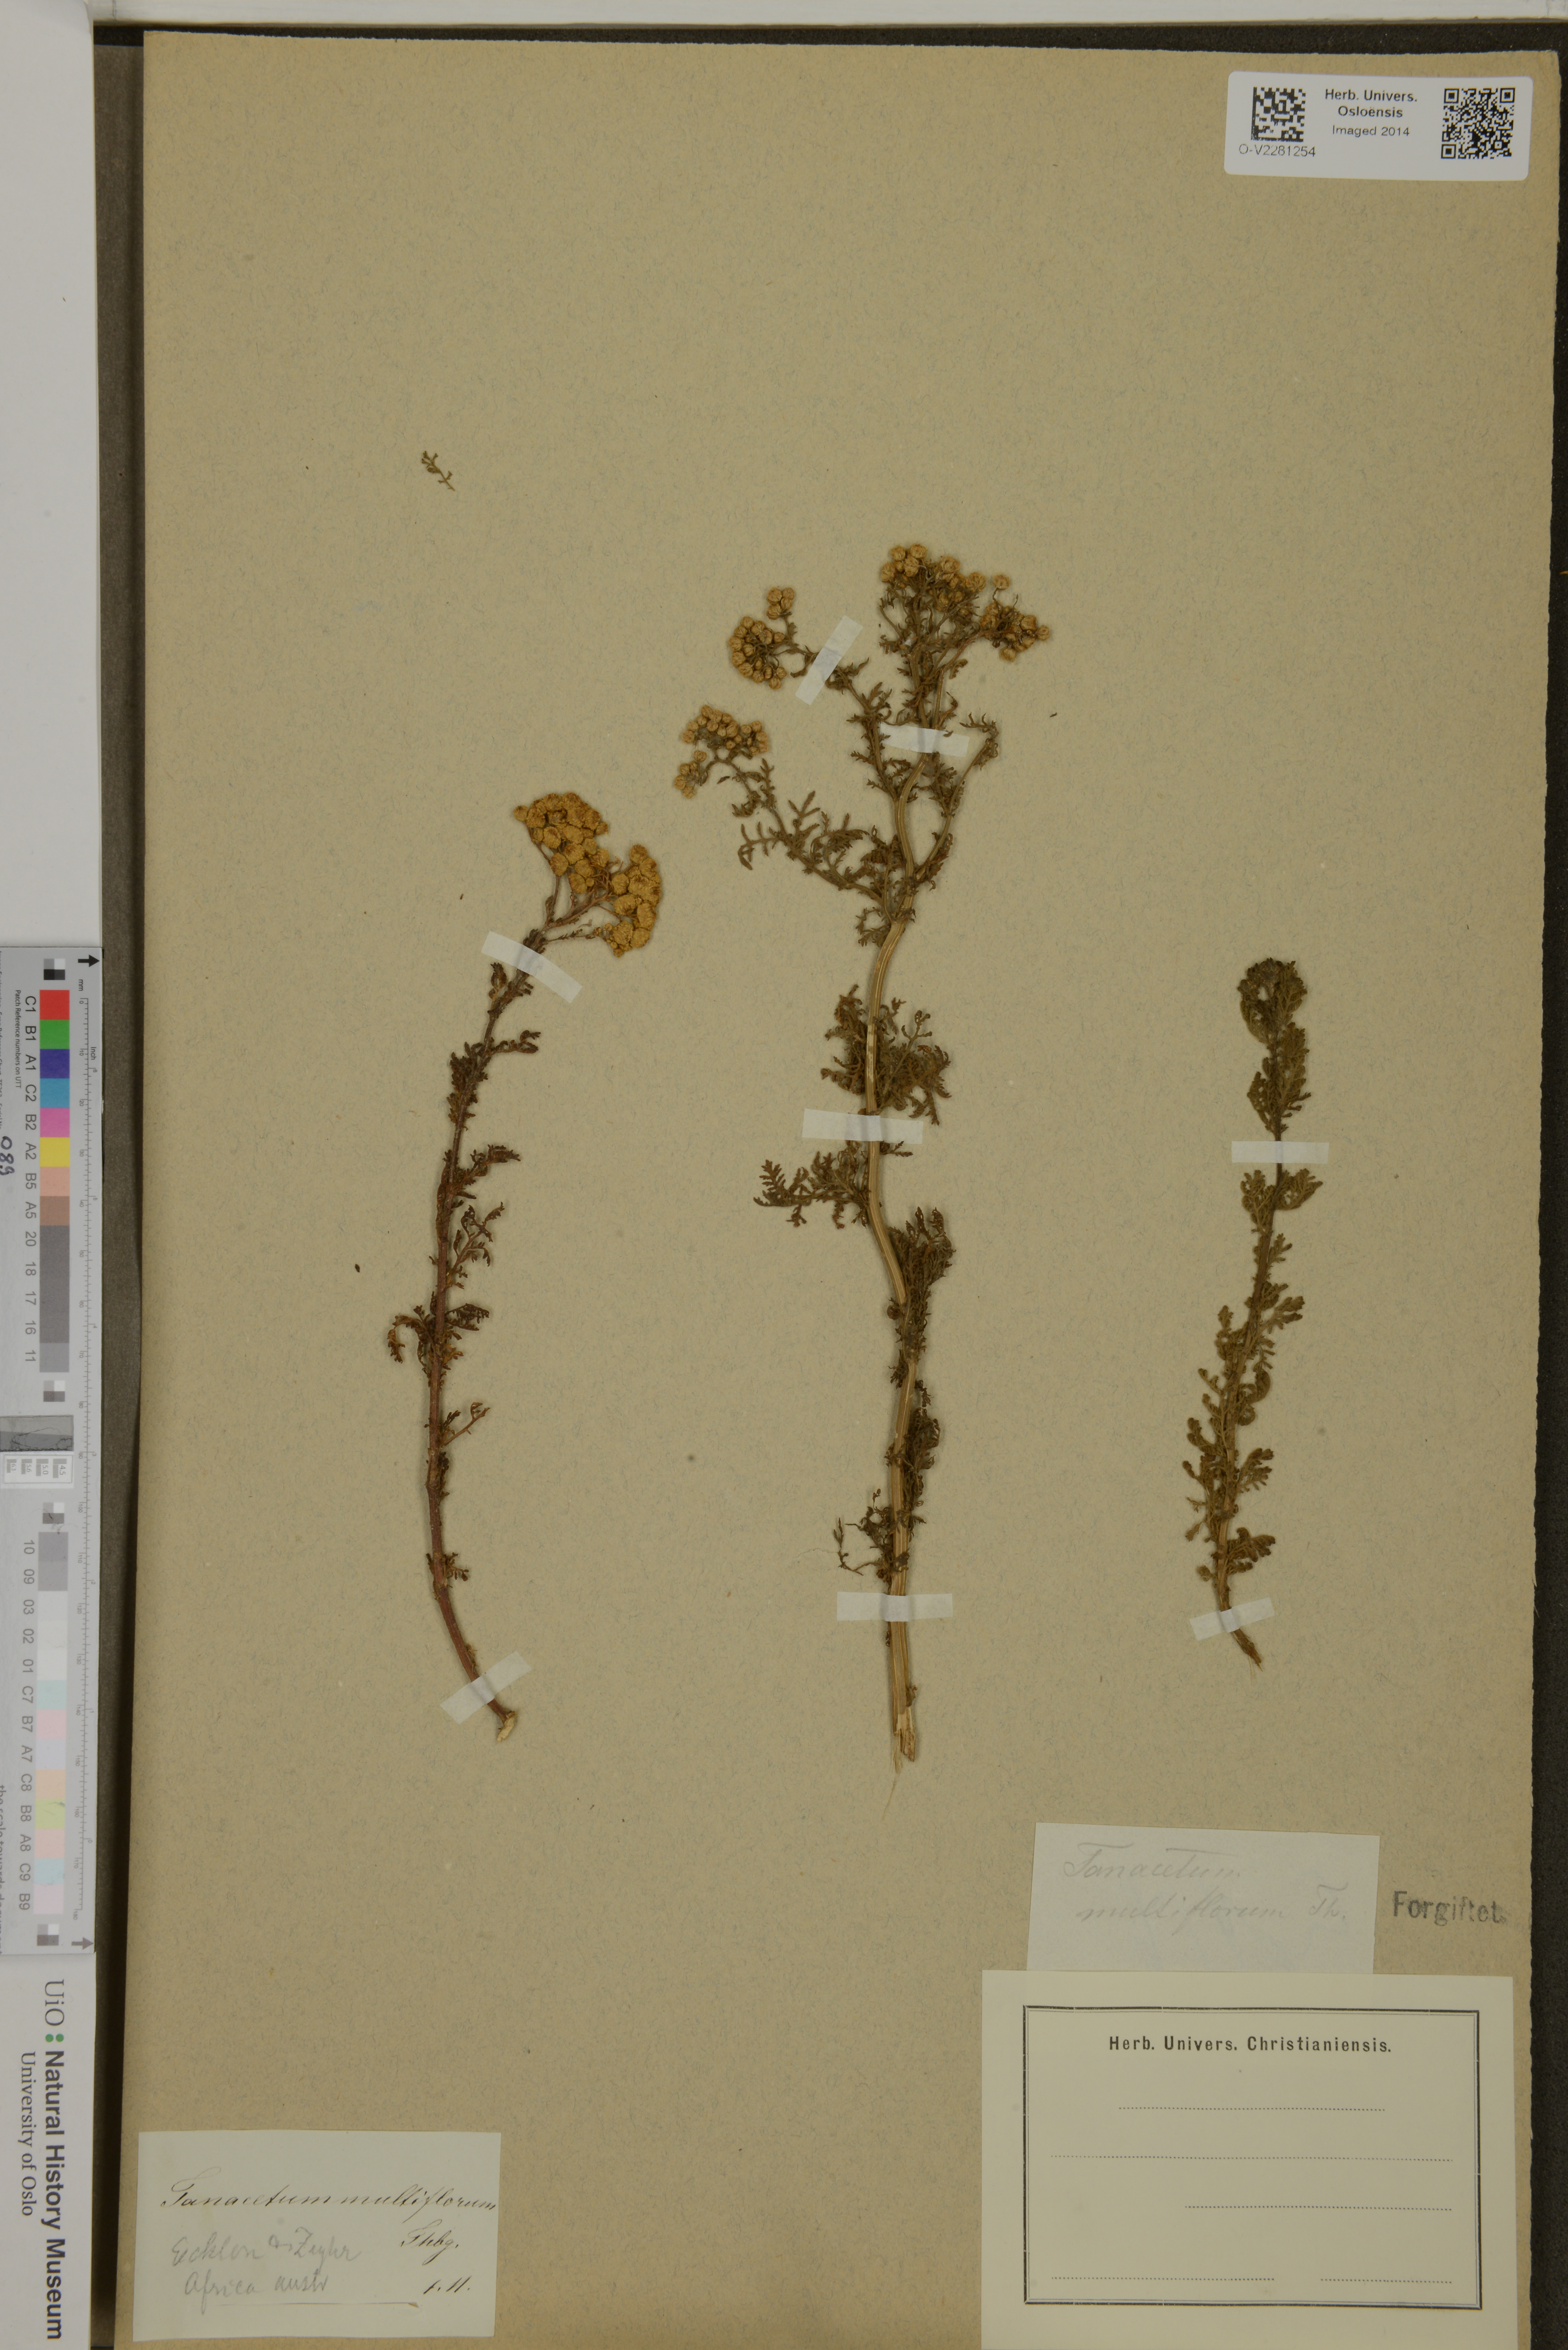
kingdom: Plantae
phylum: Tracheophyta
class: Magnoliopsida
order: Asterales
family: Asteraceae
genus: Oncosiphon
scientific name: Oncosiphon suffruticosus
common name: Shrubby mayweed
